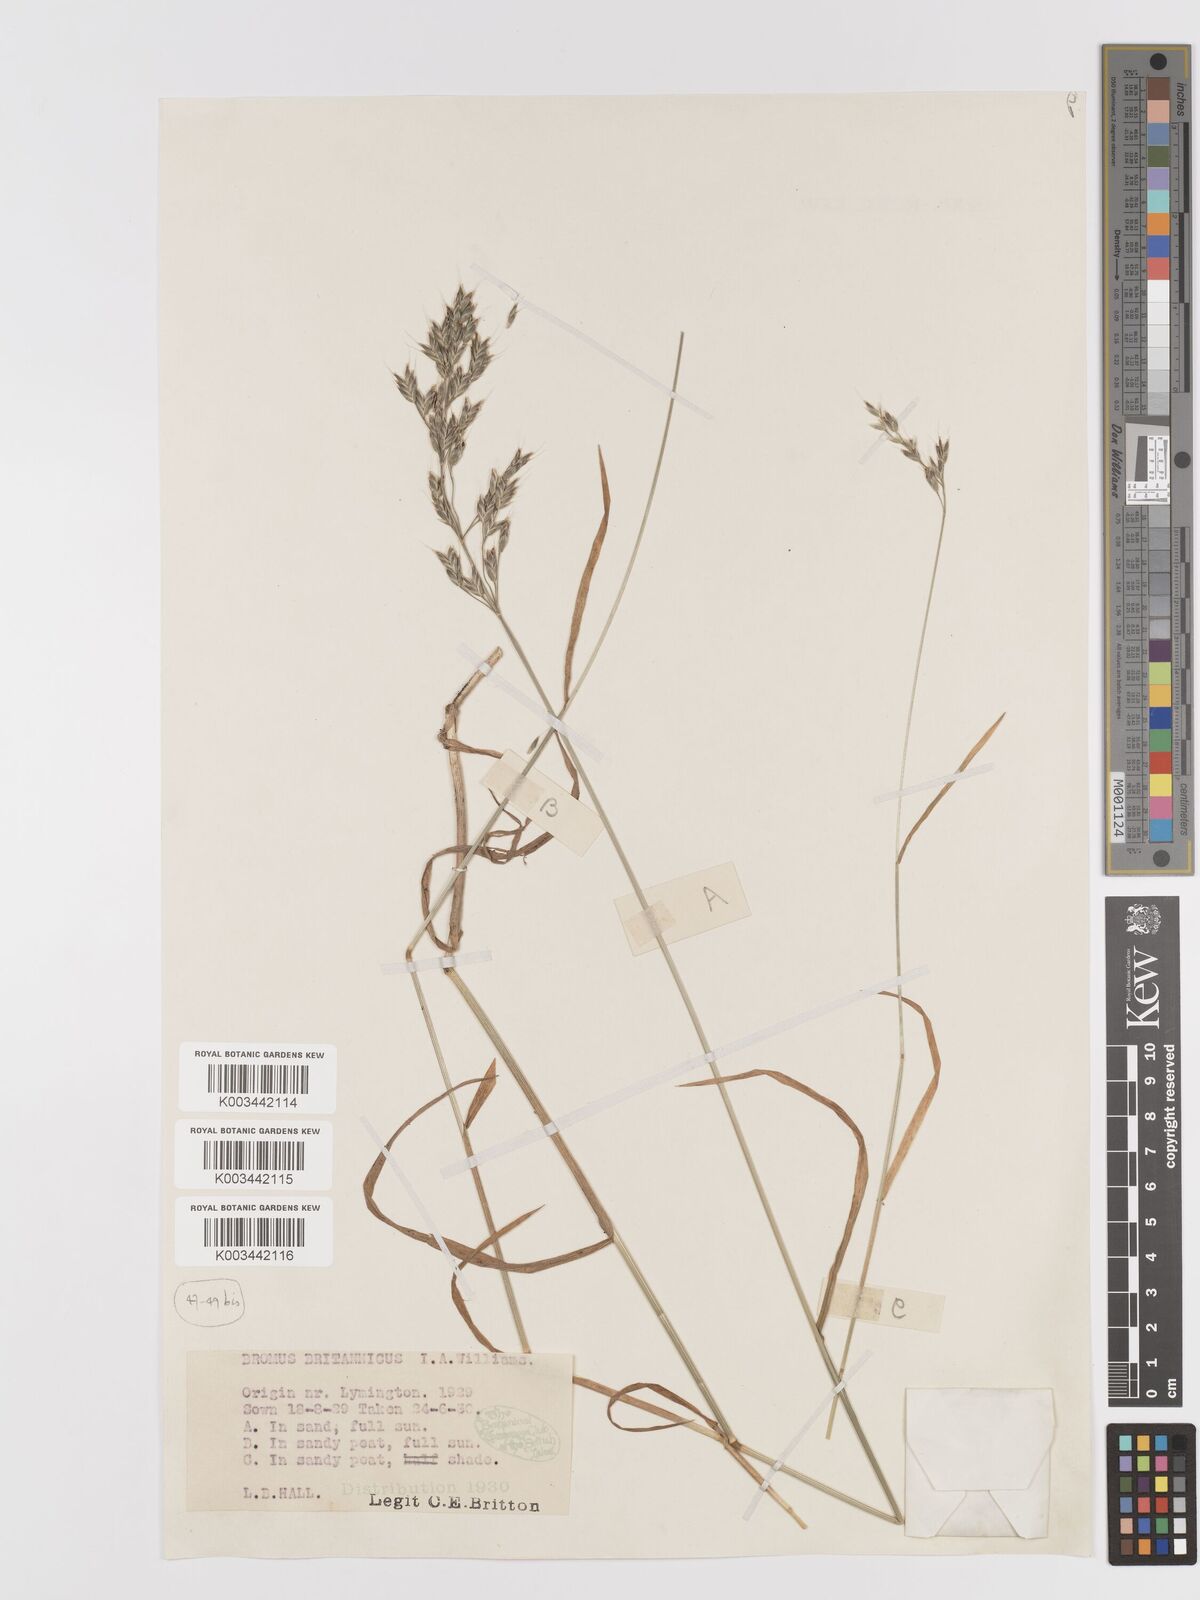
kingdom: Plantae
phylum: Tracheophyta
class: Liliopsida
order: Poales
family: Poaceae
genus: Bromus
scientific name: Bromus lepidus
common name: Slender soft-brome
